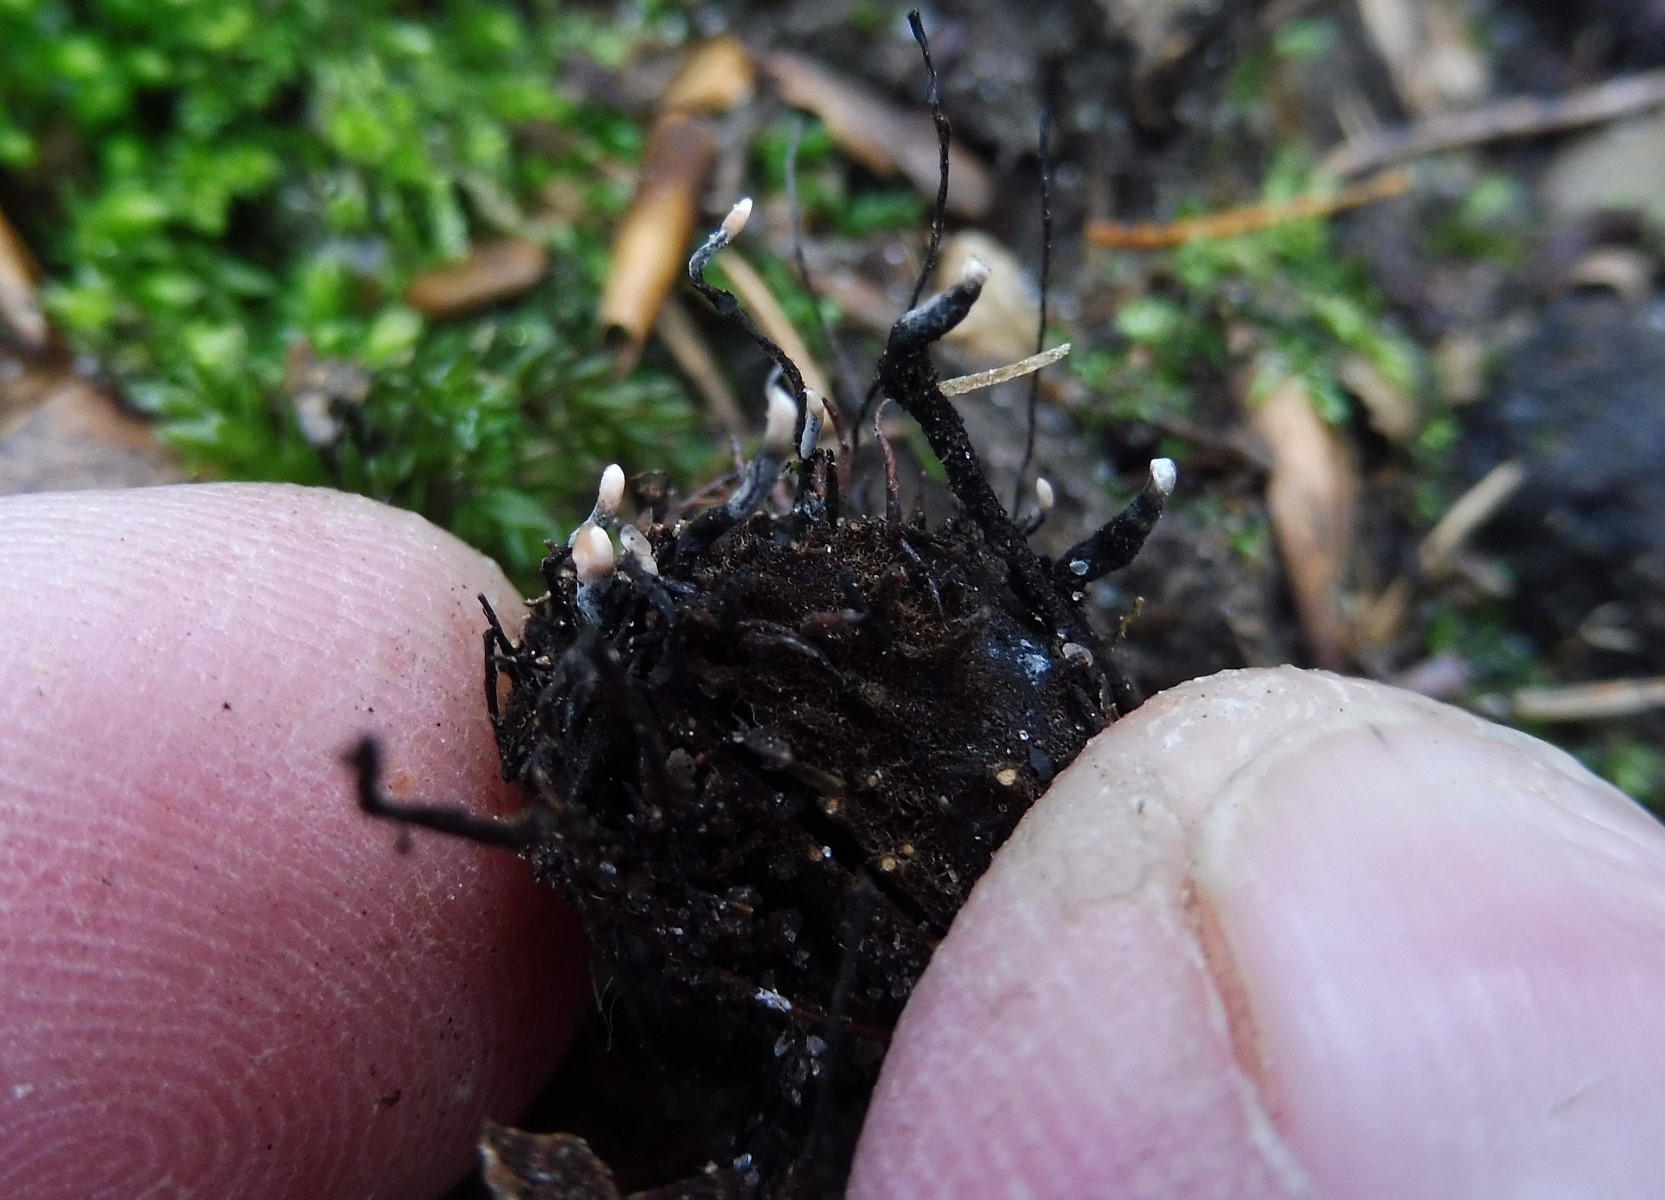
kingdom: Fungi
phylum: Ascomycota
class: Sordariomycetes
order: Xylariales
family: Xylariaceae
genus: Xylaria
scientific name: Xylaria carpophila
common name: bogskål-stødsvamp
